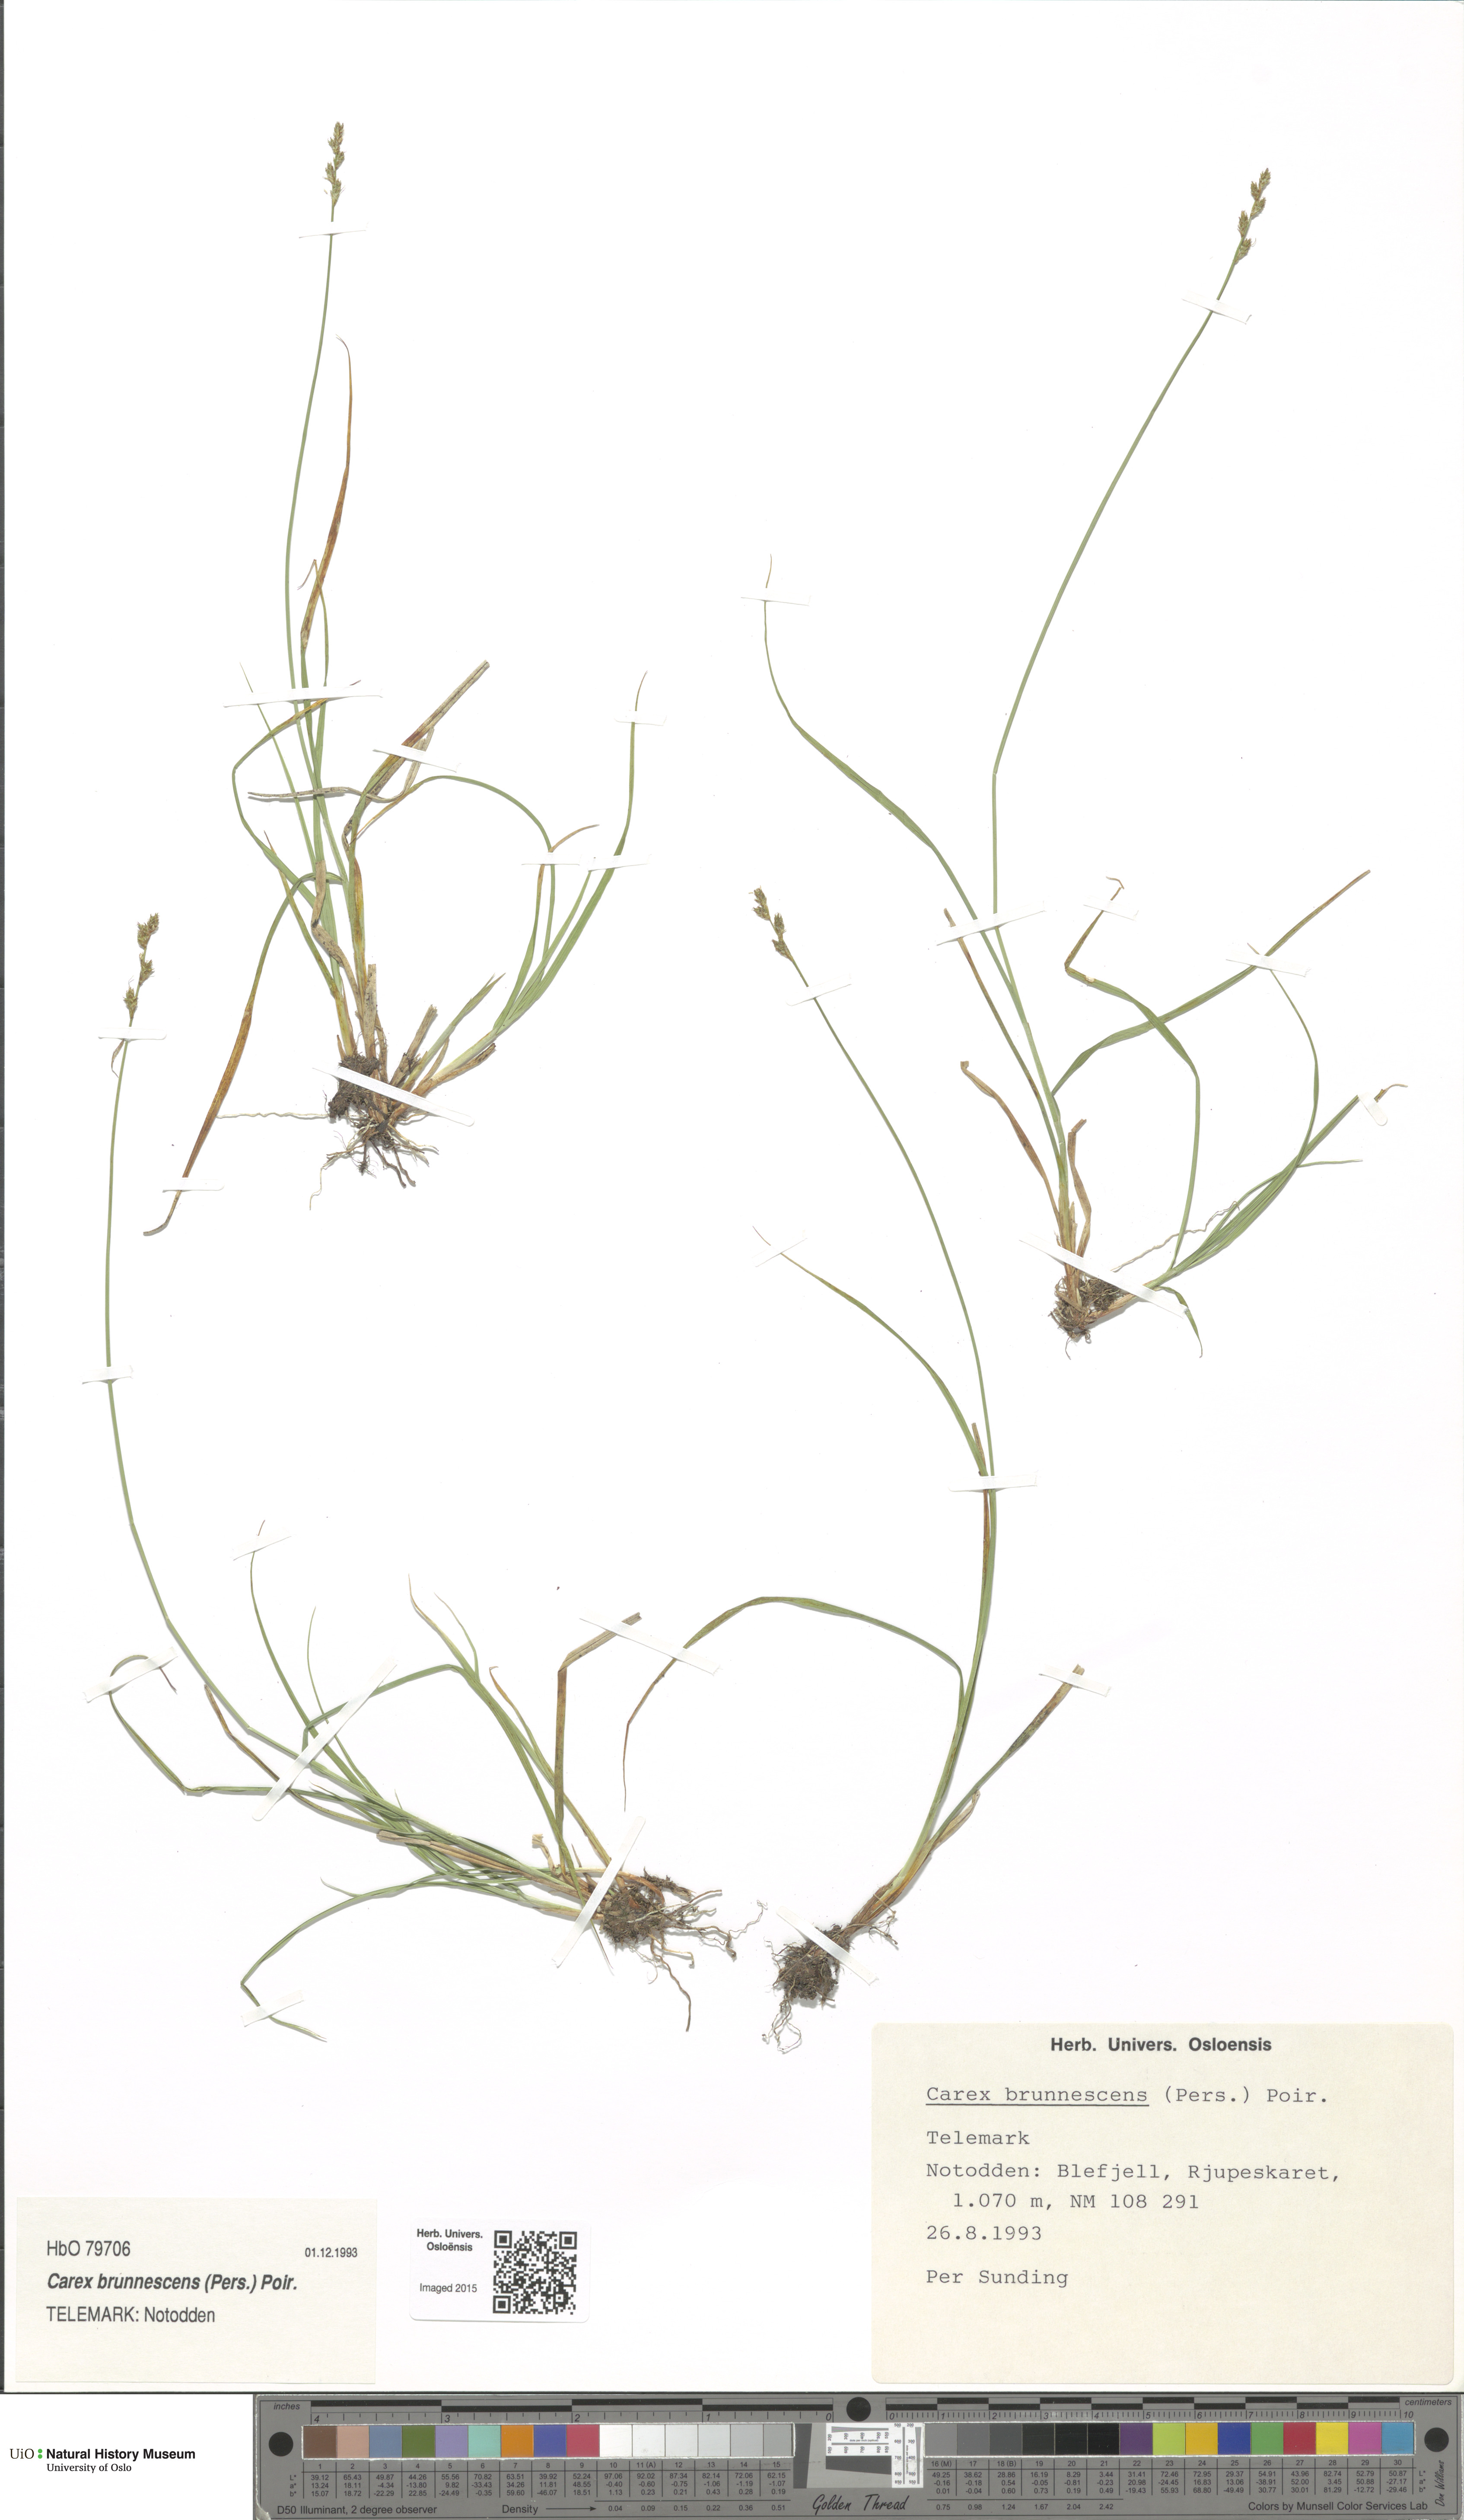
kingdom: Plantae
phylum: Tracheophyta
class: Liliopsida
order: Poales
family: Cyperaceae
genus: Carex
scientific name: Carex brunnescens
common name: Brown sedge
